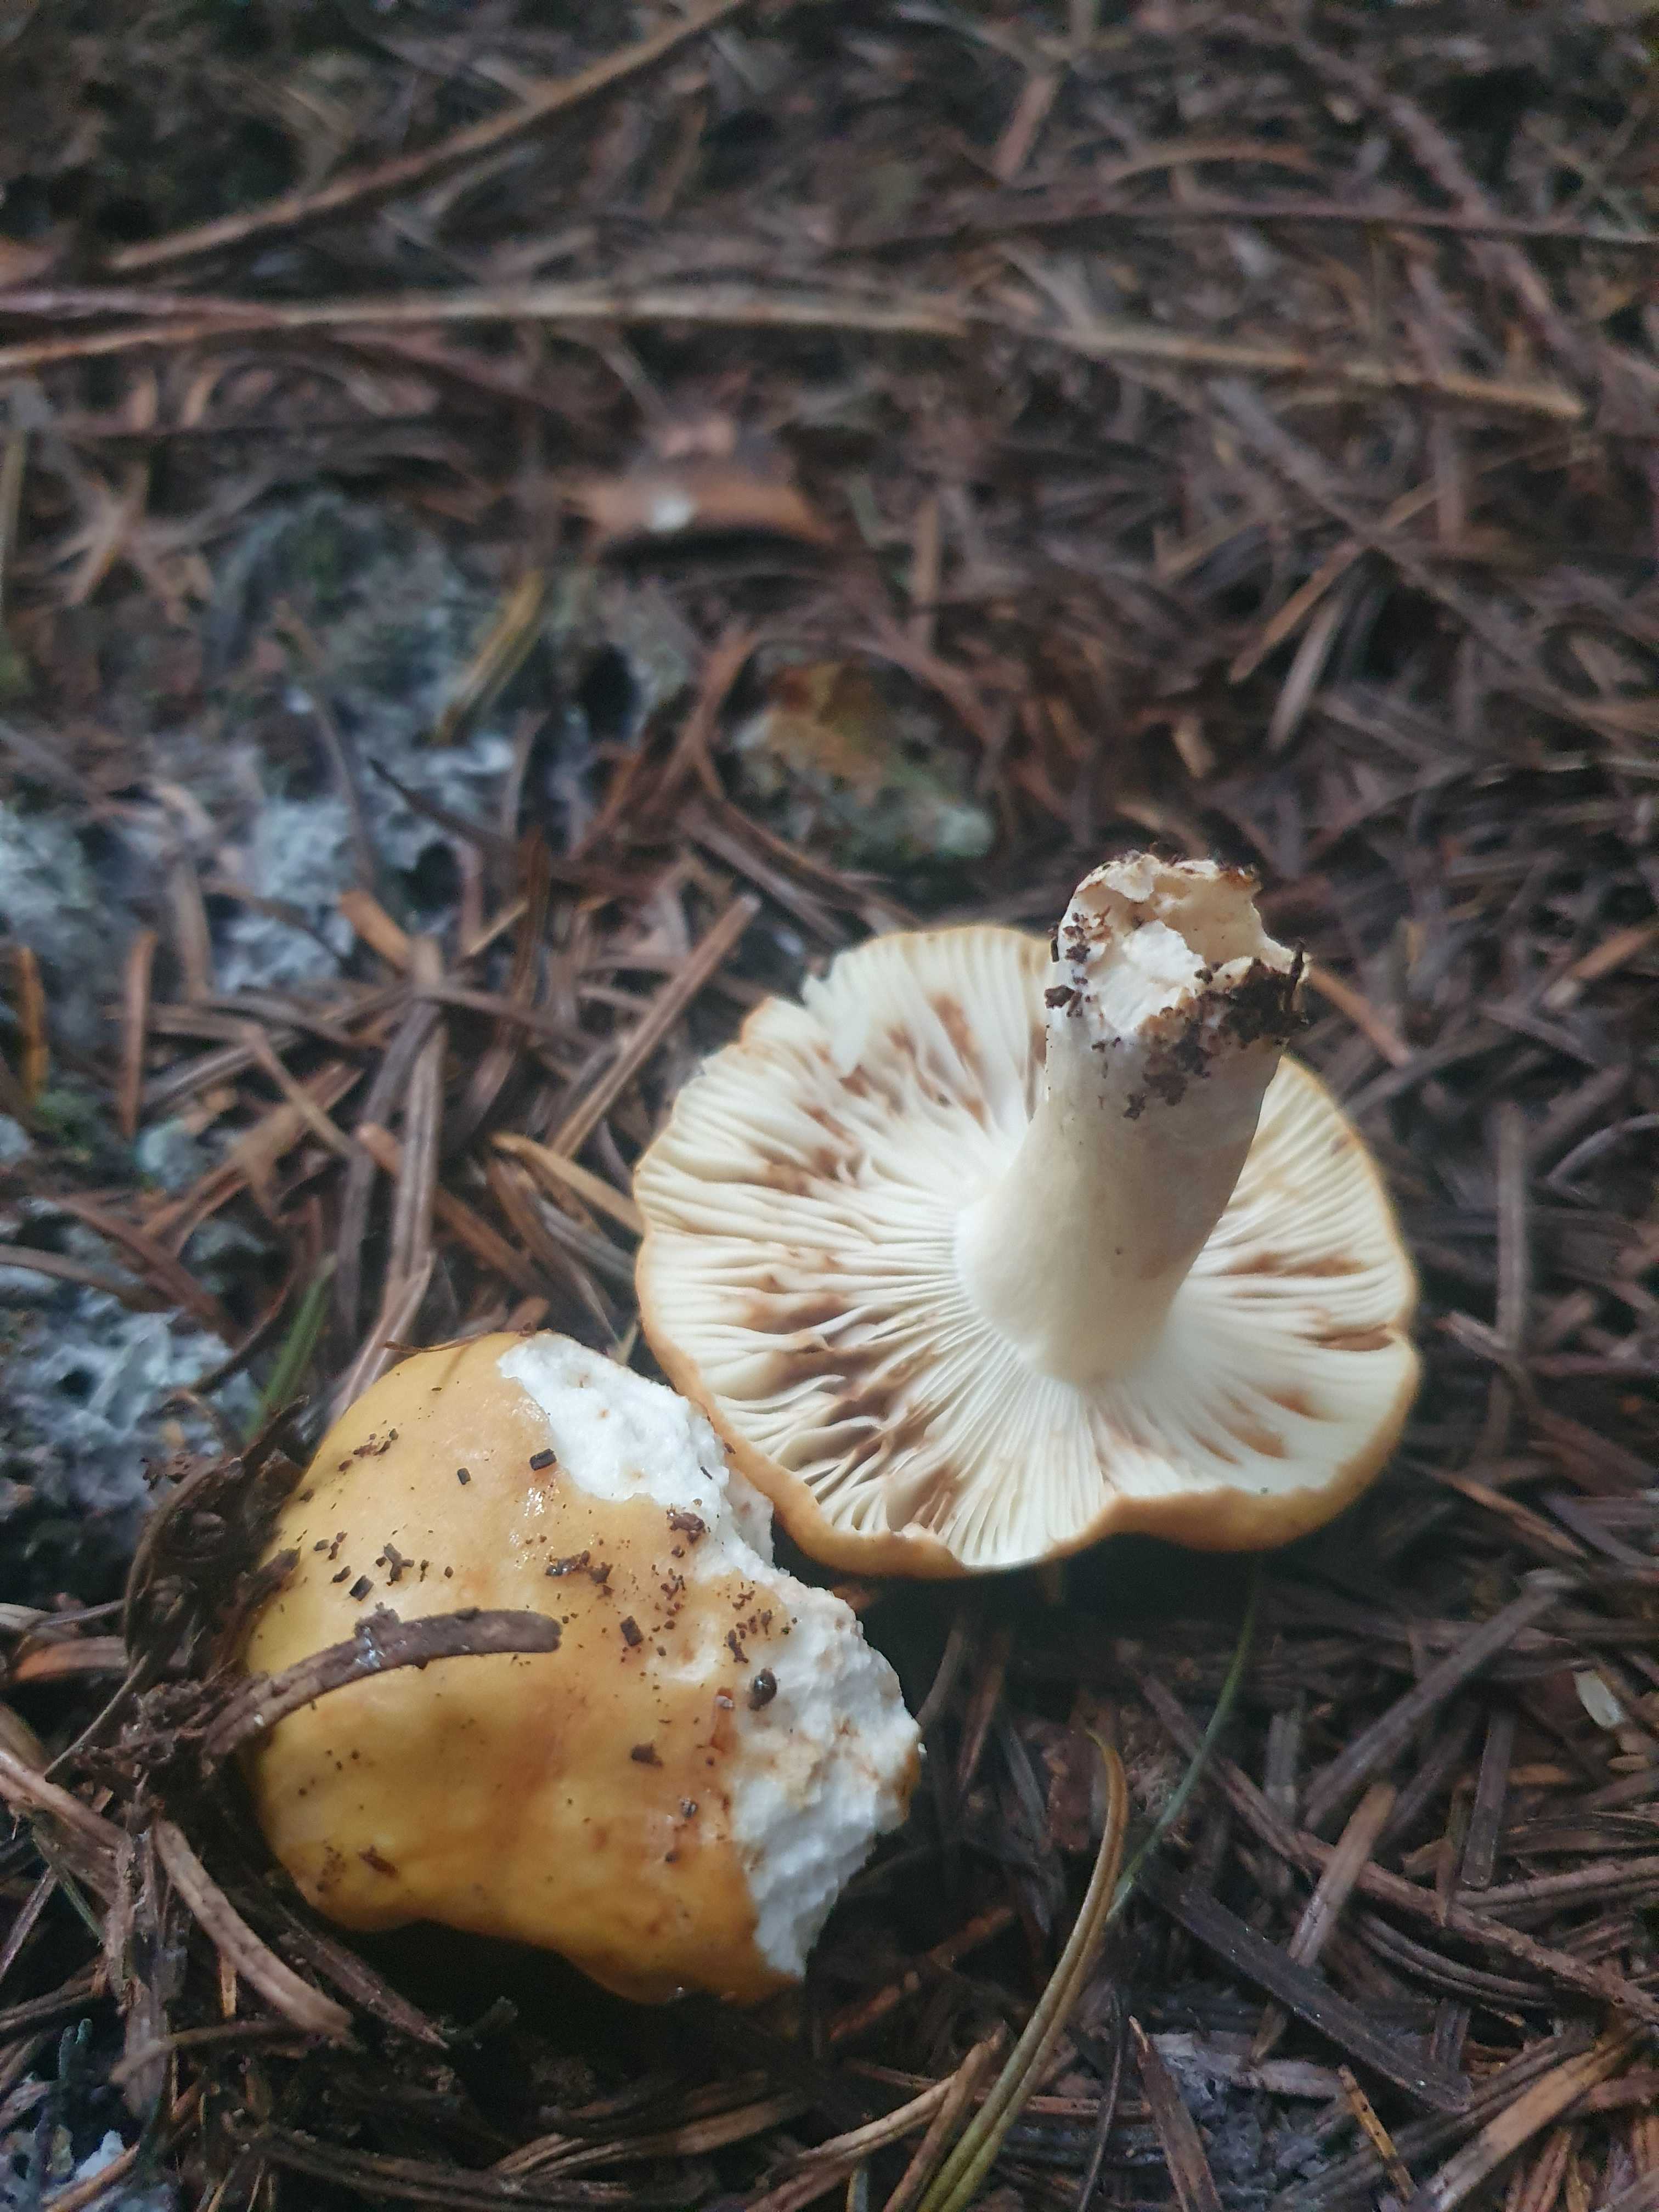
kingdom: Fungi
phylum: Basidiomycota
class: Agaricomycetes
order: Russulales
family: Russulaceae
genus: Russula
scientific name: Russula ochroleuca
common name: okkergul skørhat
